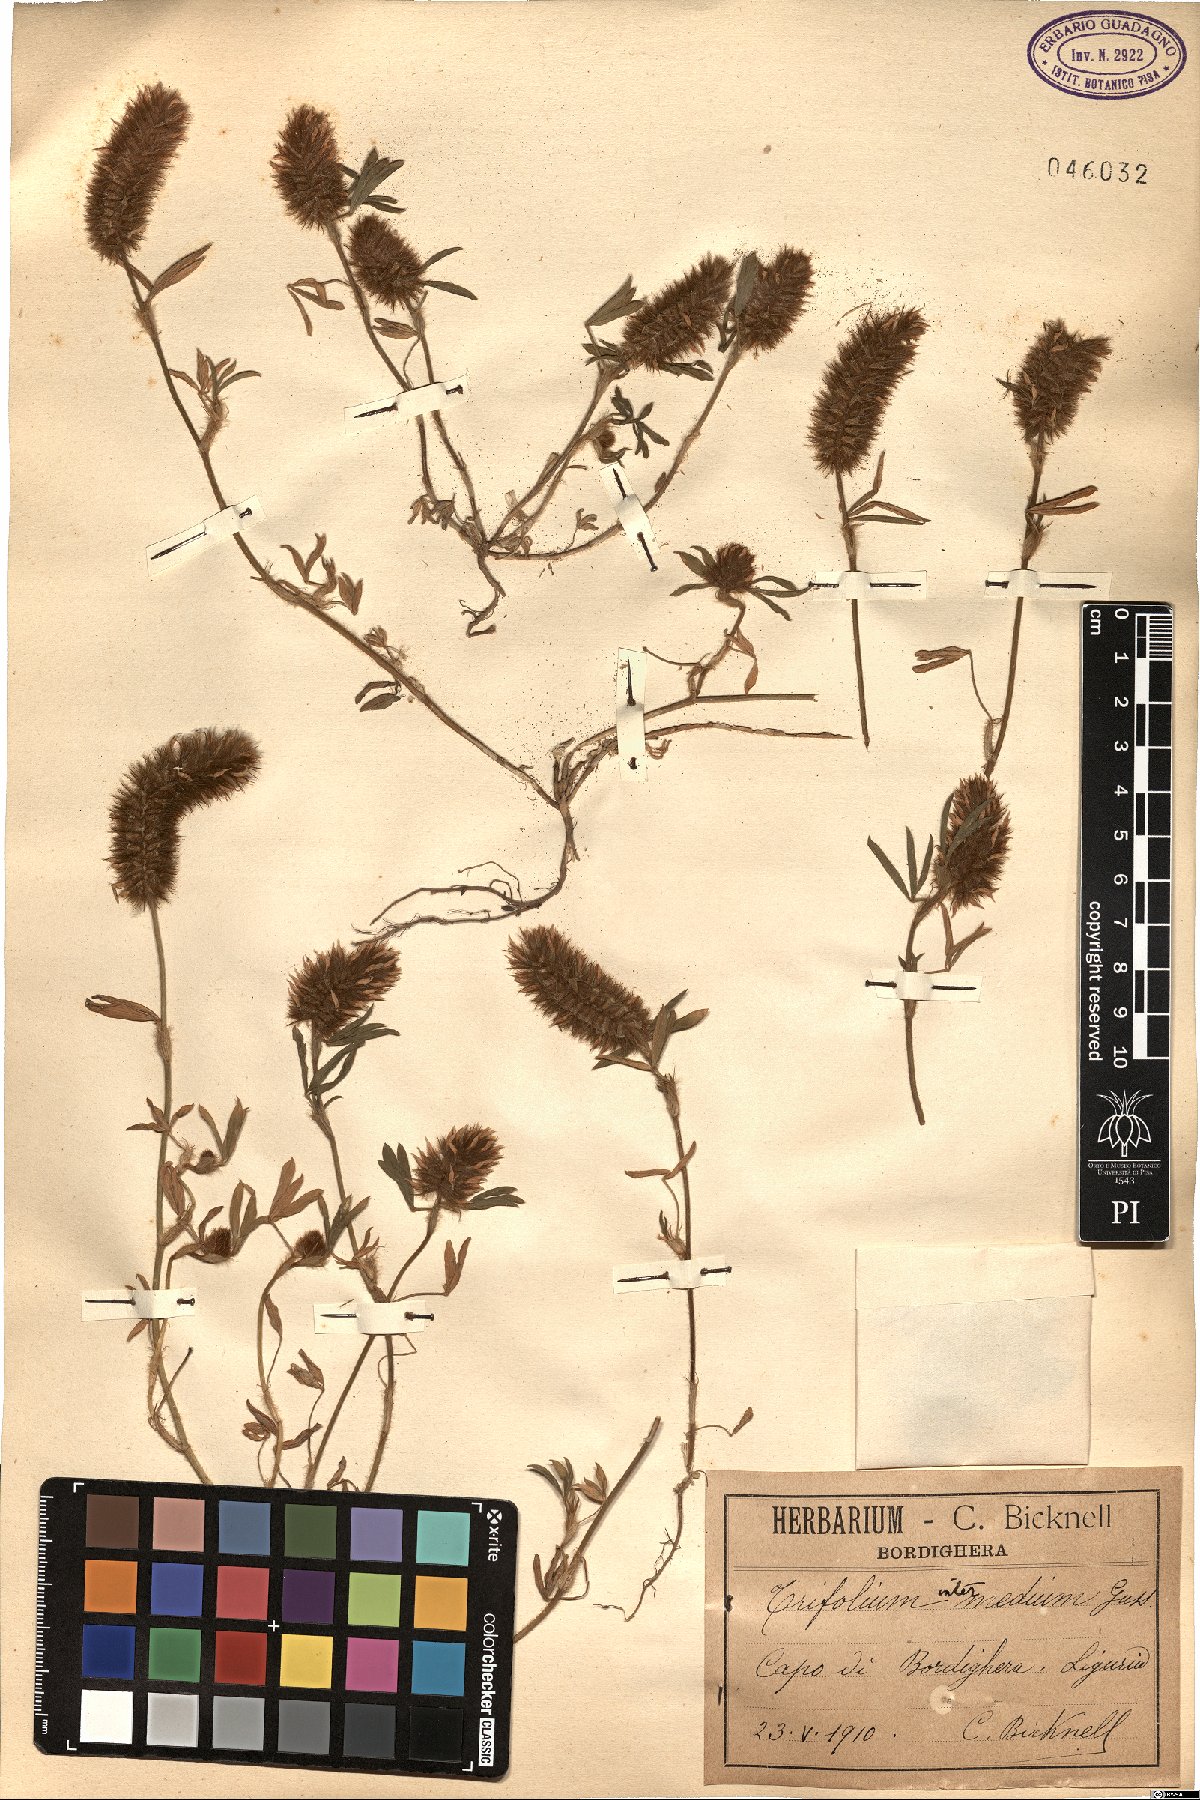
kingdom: Plantae
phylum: Tracheophyta
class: Magnoliopsida
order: Fabales
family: Fabaceae
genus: Trifolium
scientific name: Trifolium infamia-ponertii
